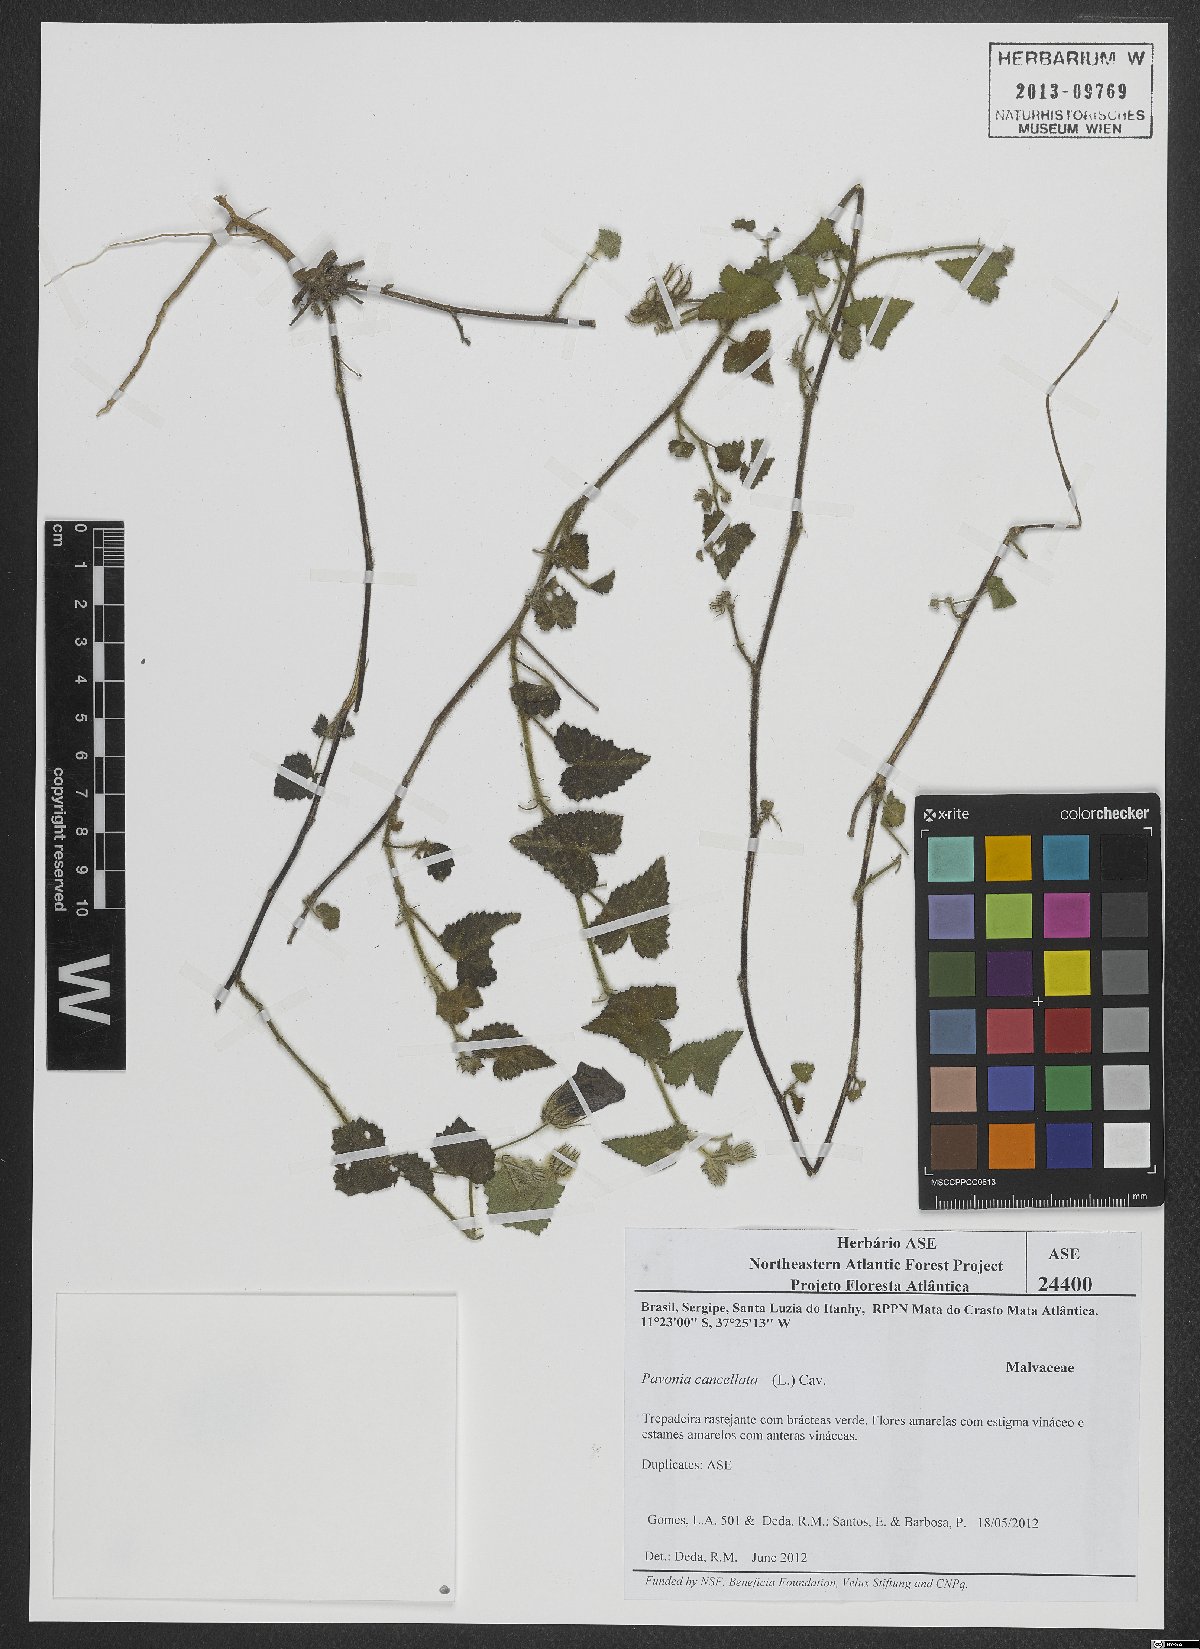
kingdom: Plantae
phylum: Tracheophyta
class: Magnoliopsida
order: Malvales
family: Malvaceae
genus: Pavonia
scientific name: Pavonia cancellata
